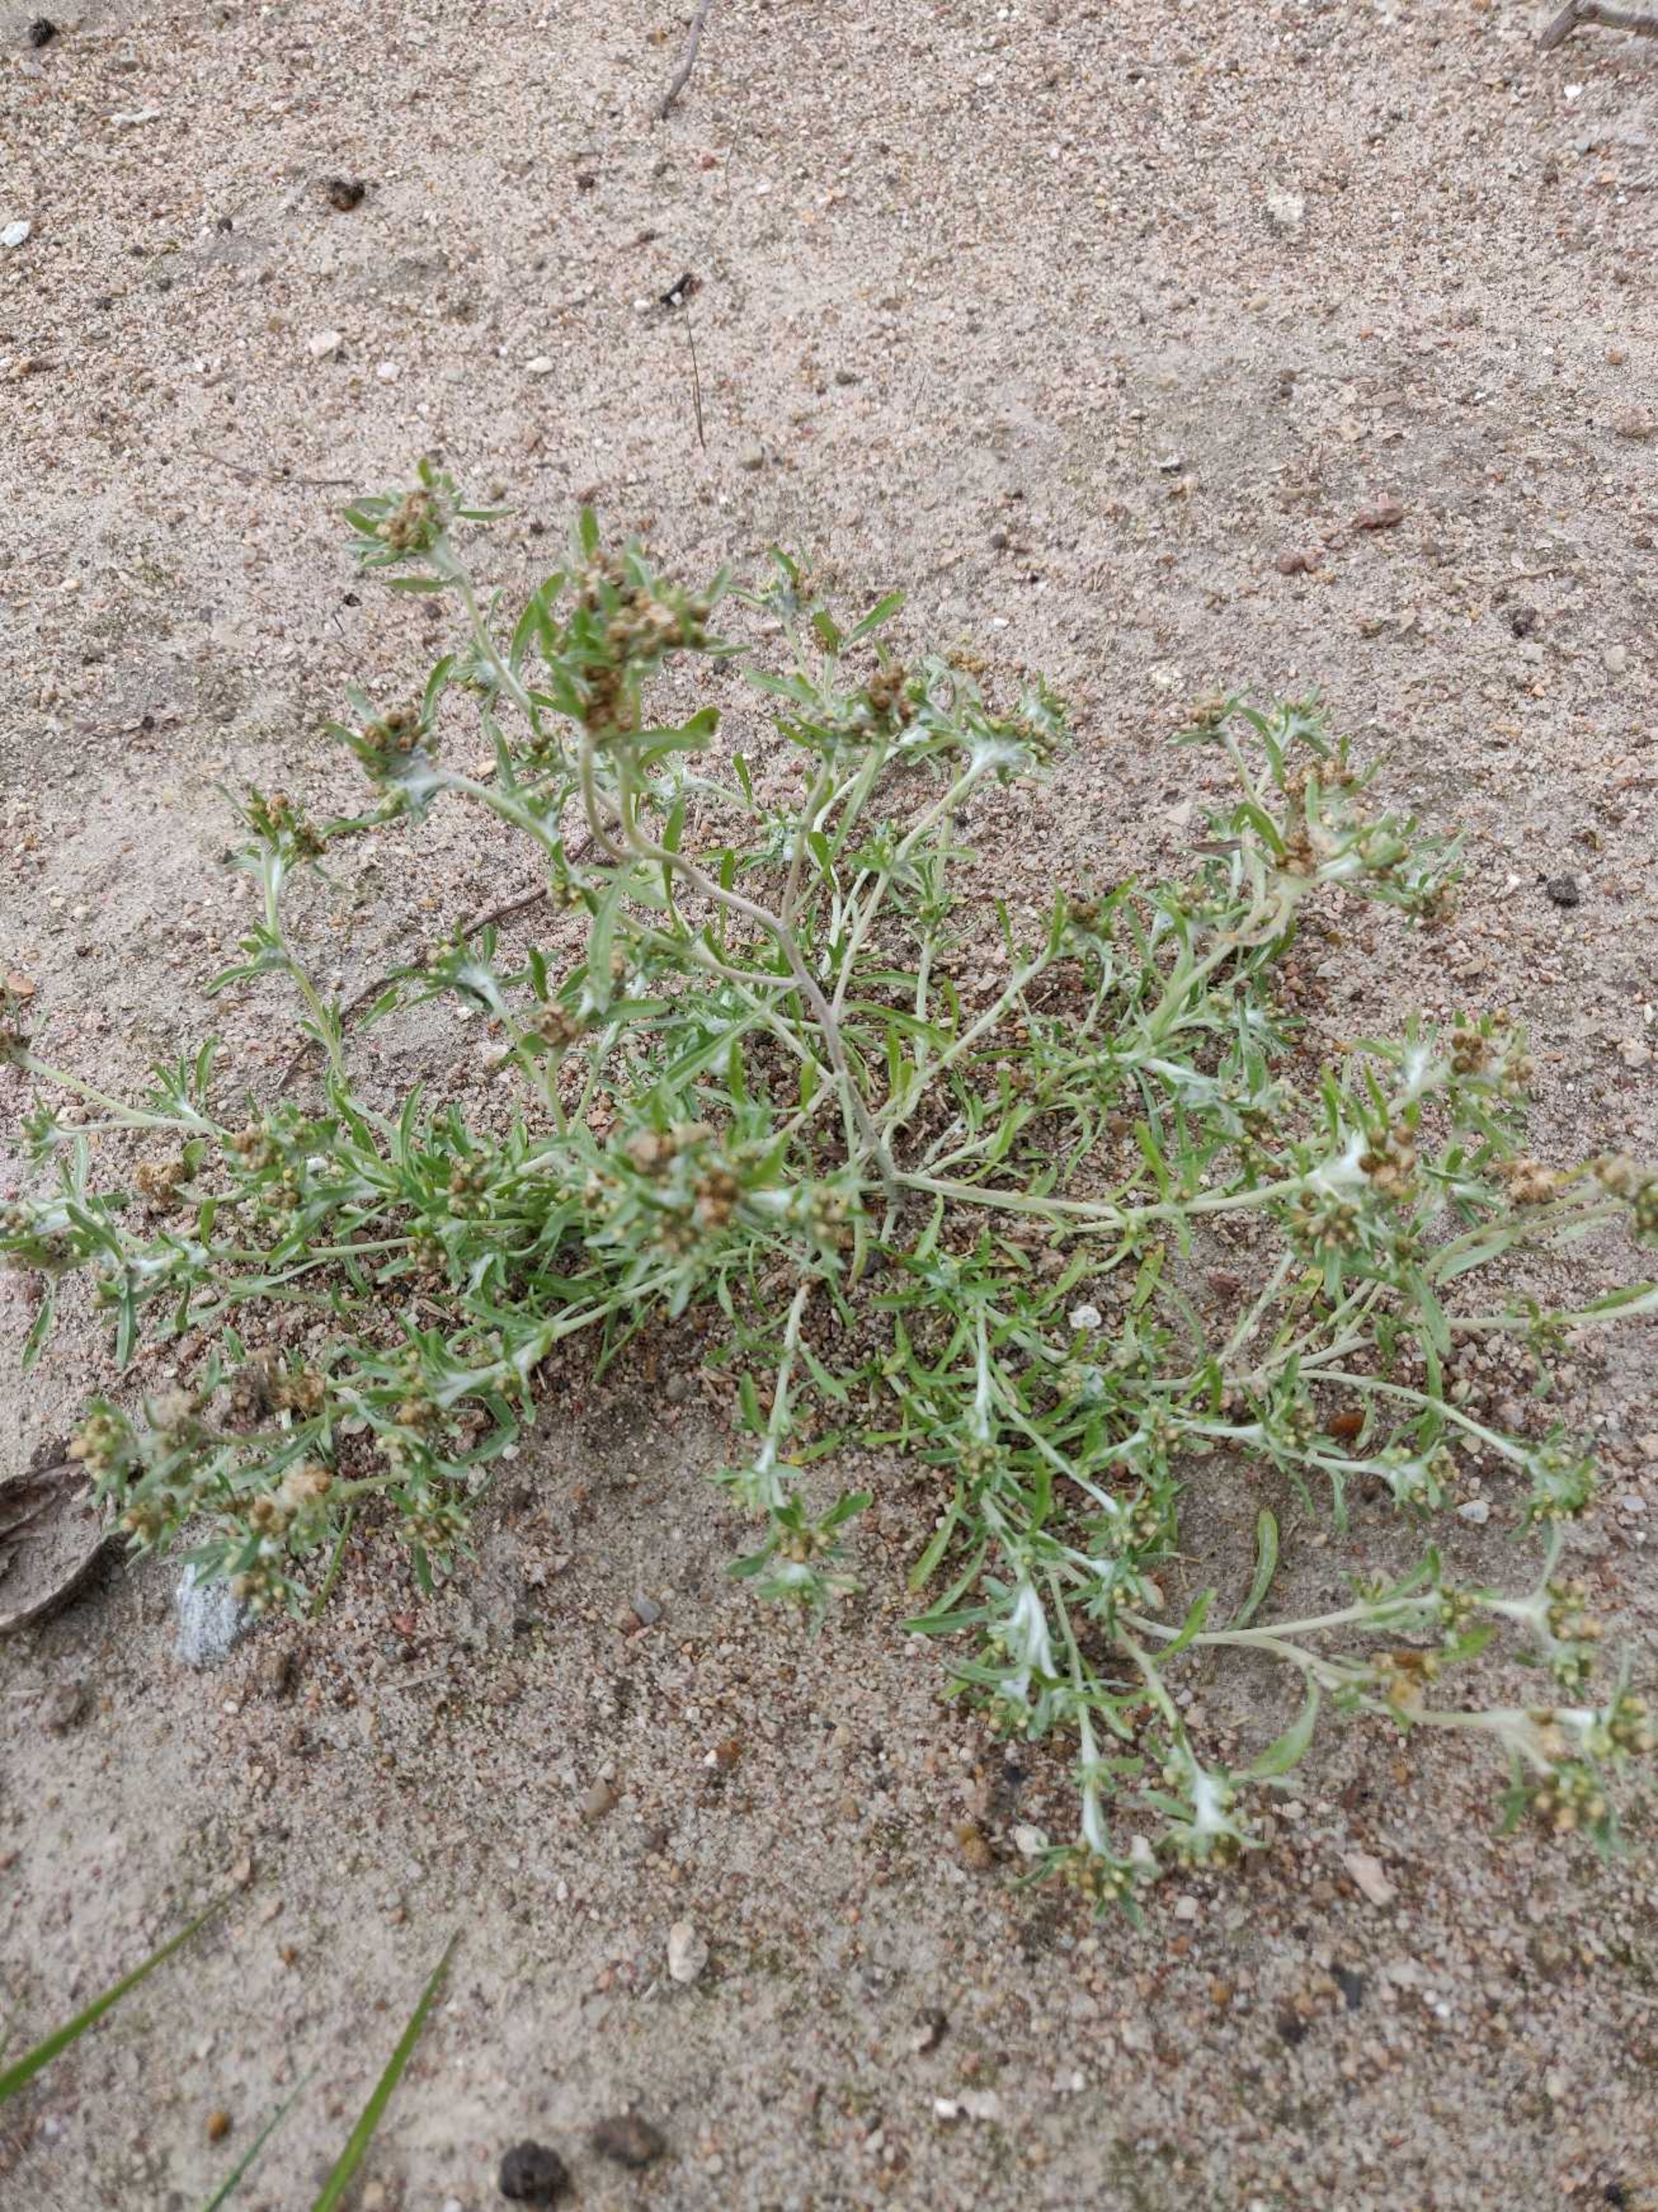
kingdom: Plantae
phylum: Tracheophyta
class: Magnoliopsida
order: Asterales
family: Asteraceae
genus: Gnaphalium
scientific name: Gnaphalium uliginosum
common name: Sump-evighedsblomst
